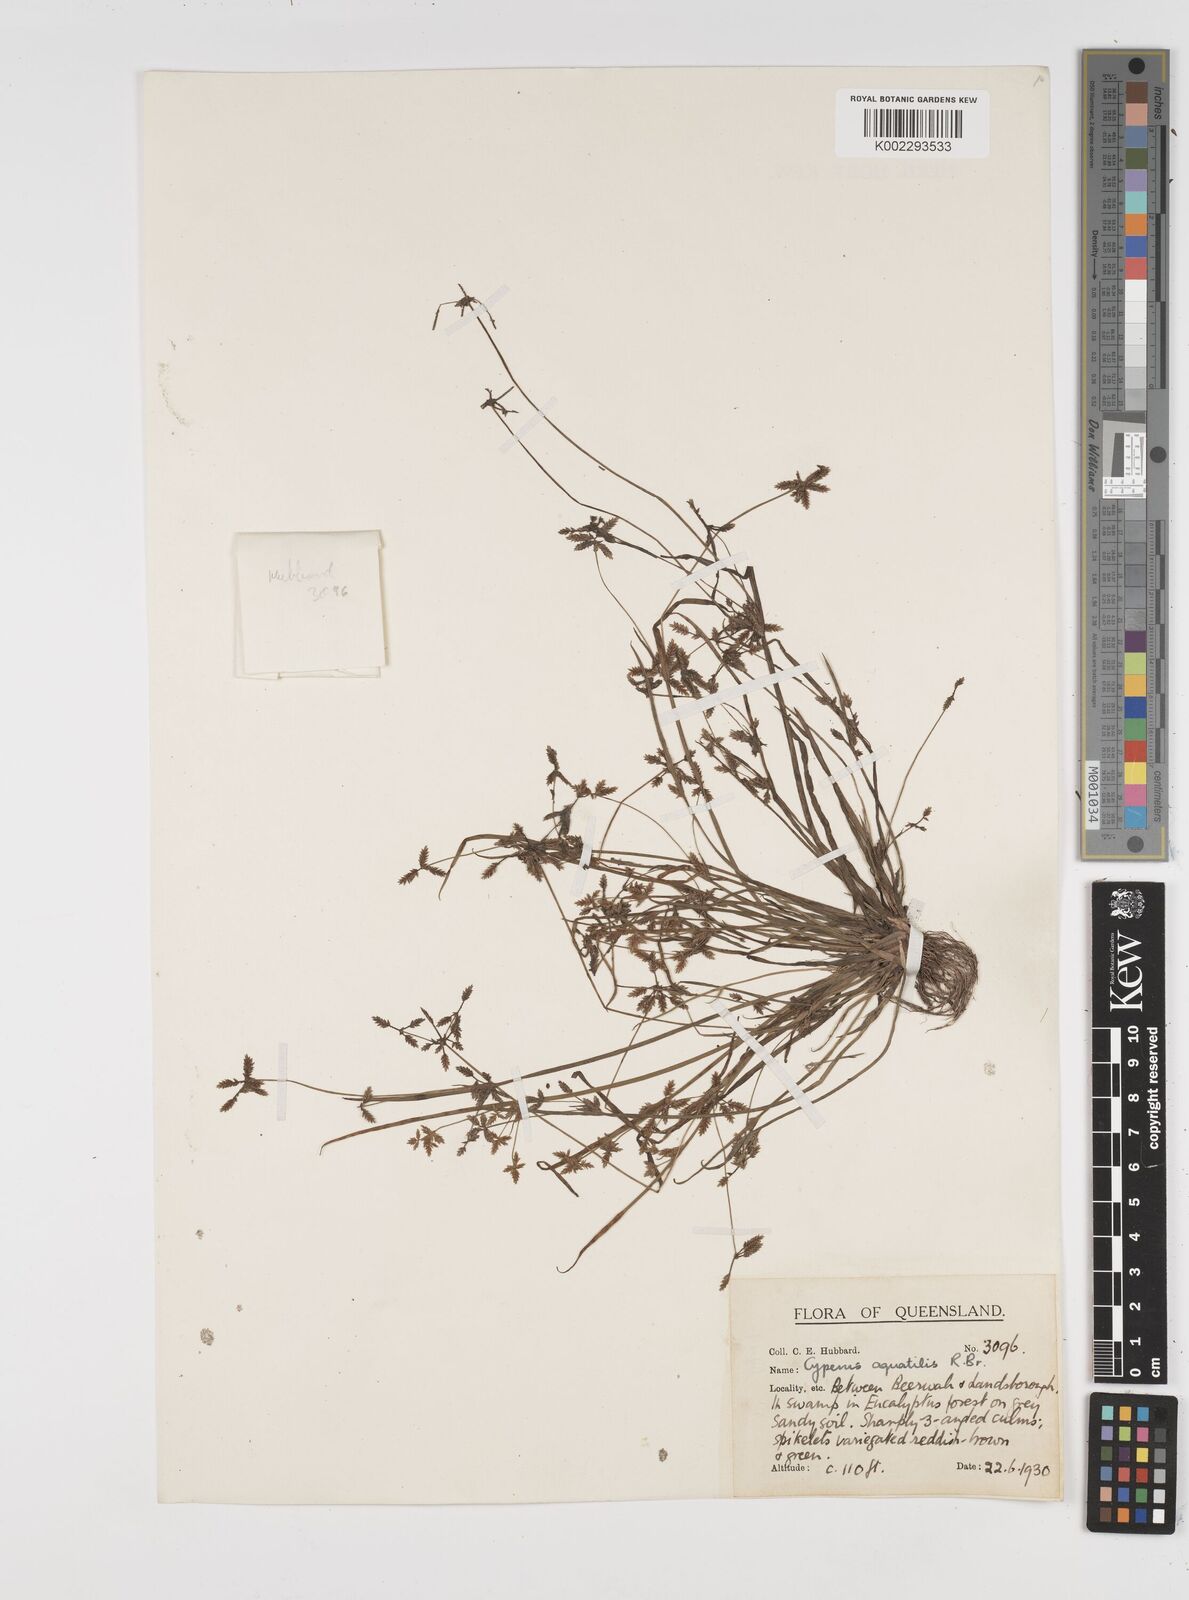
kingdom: Plantae
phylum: Tracheophyta
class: Liliopsida
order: Poales
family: Cyperaceae
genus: Cyperus
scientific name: Cyperus aquatilis
